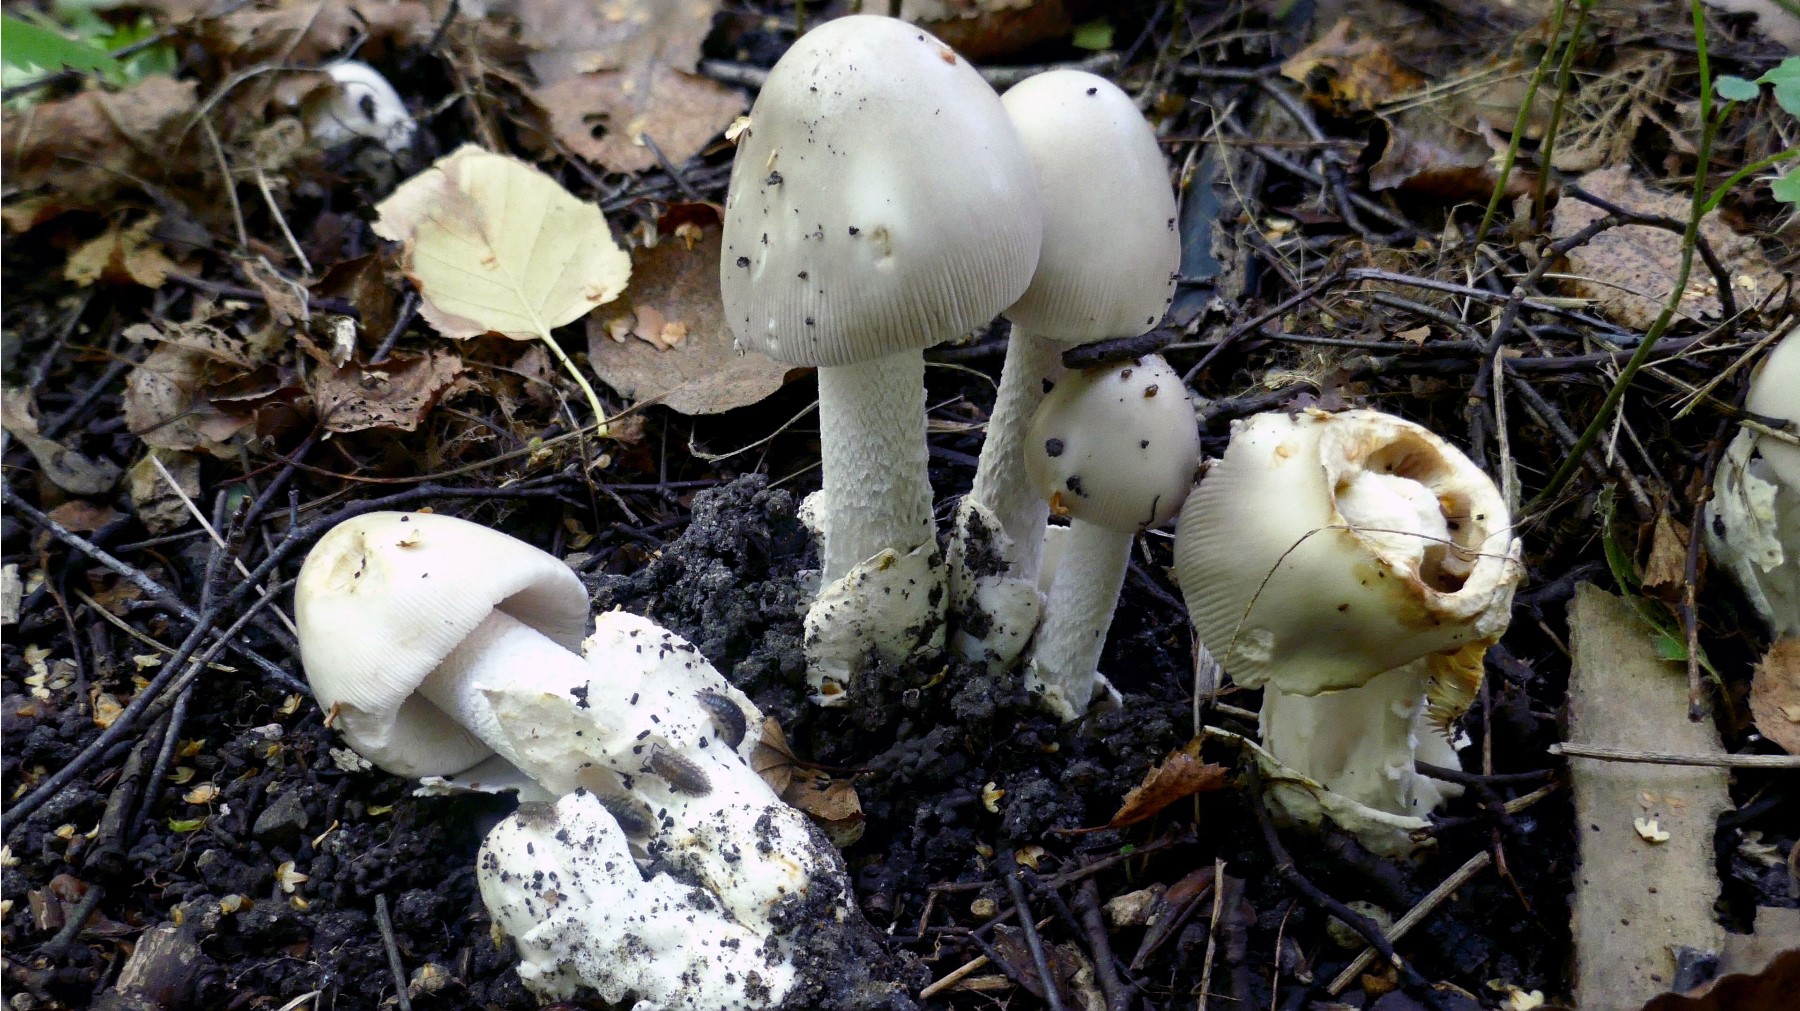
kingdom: Fungi
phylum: Basidiomycota
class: Agaricomycetes
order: Agaricales
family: Amanitaceae
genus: Amanita
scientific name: Amanita vaginata
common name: grå kam-fluesvamp
